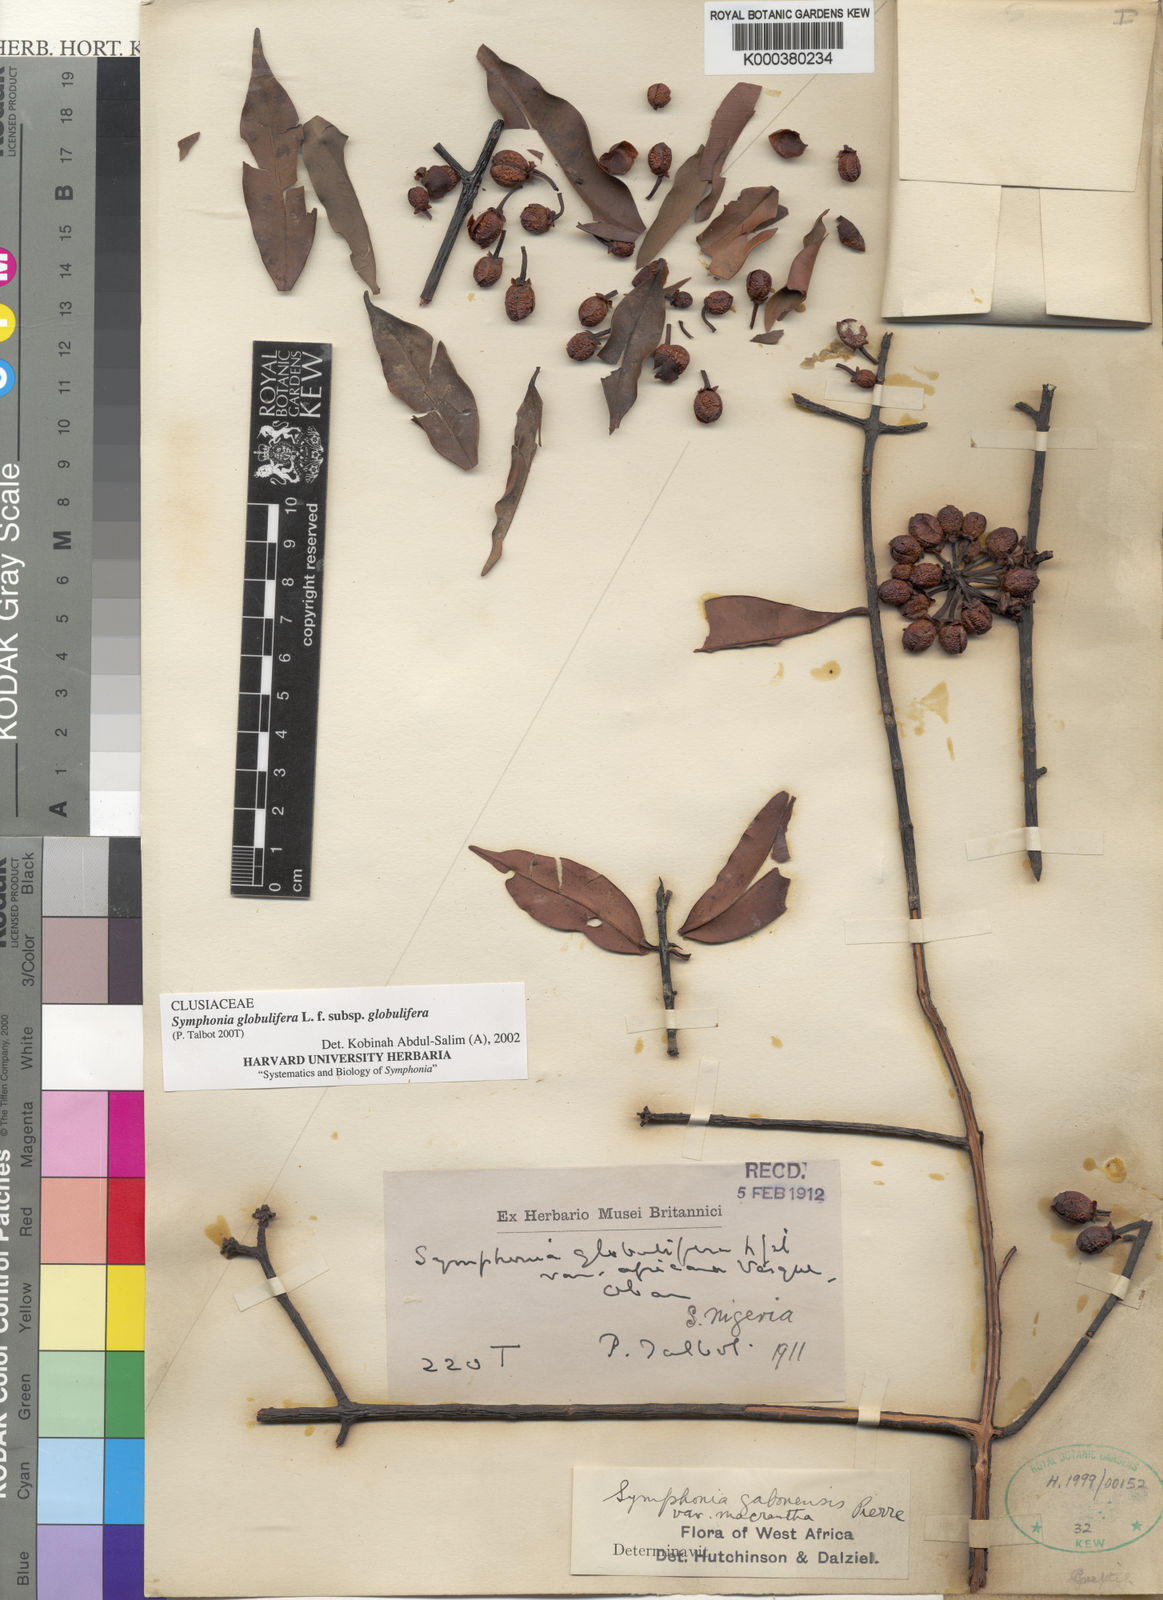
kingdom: Plantae
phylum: Tracheophyta
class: Magnoliopsida
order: Malpighiales
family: Clusiaceae
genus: Symphonia
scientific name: Symphonia globulifera
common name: Boarwood
